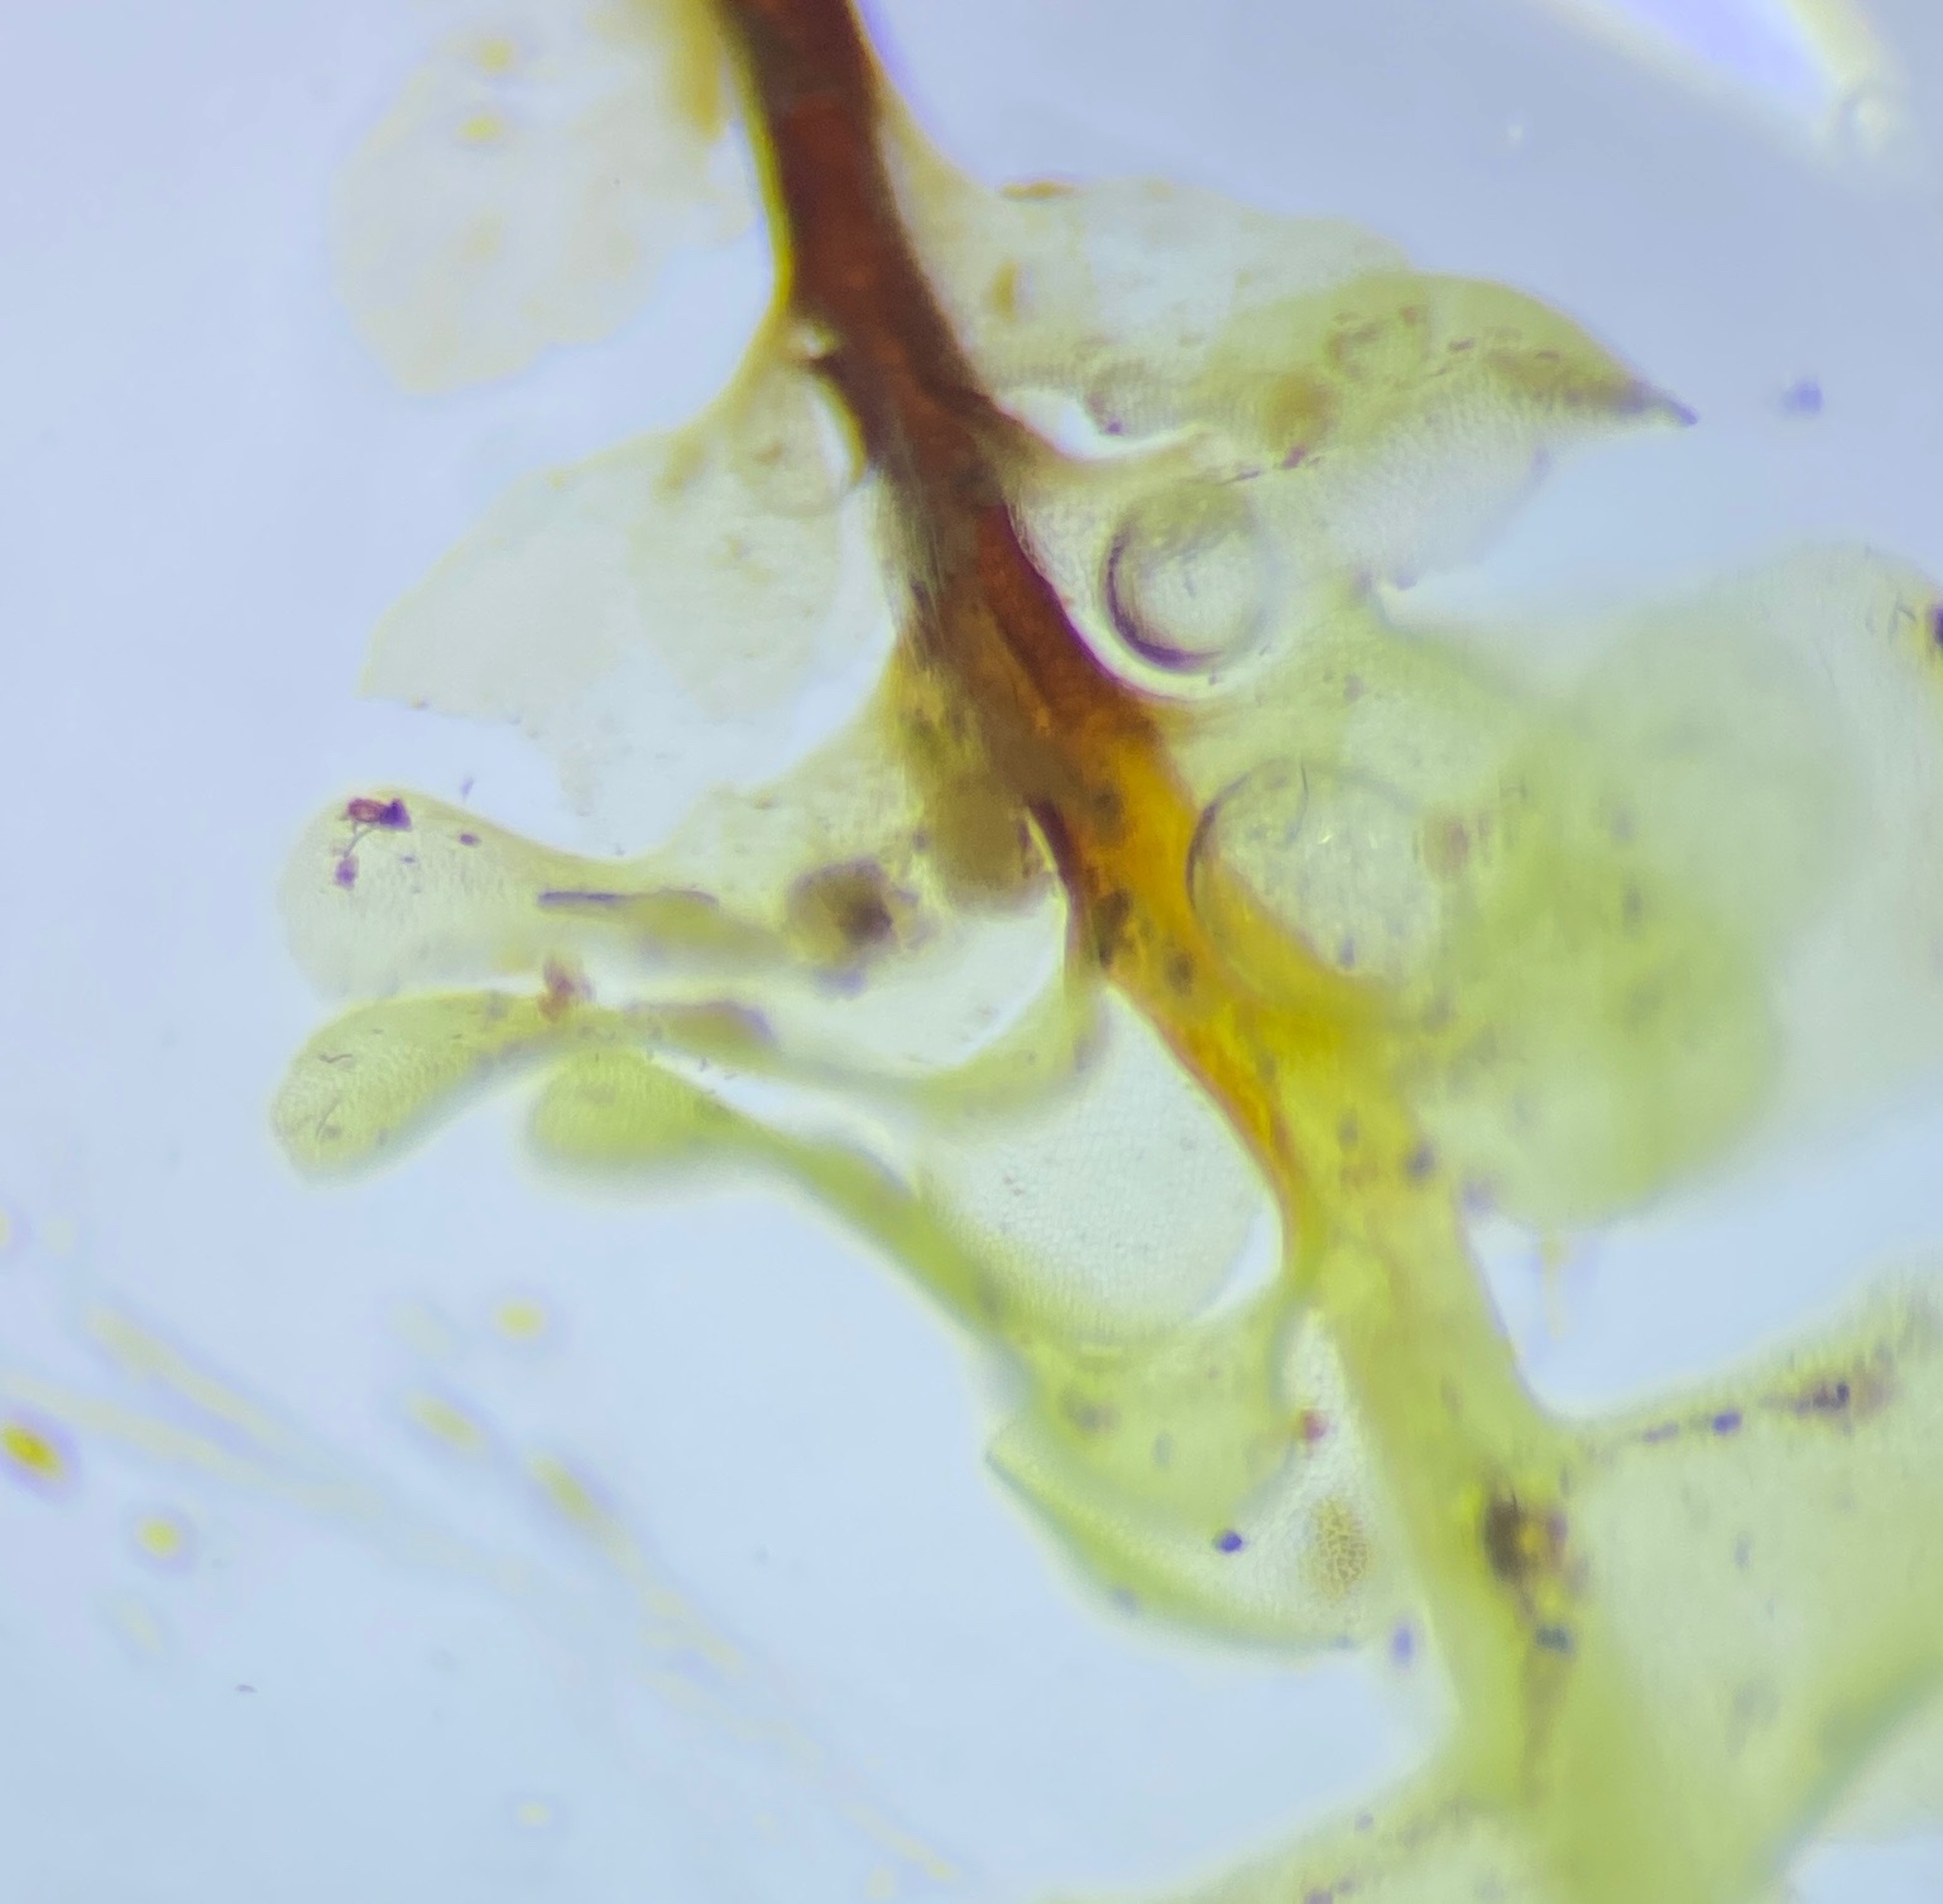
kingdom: Plantae
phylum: Marchantiophyta
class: Jungermanniopsida
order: Jungermanniales
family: Scapaniaceae
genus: Scapania
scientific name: Scapania undulata
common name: Bæk-tveblad
